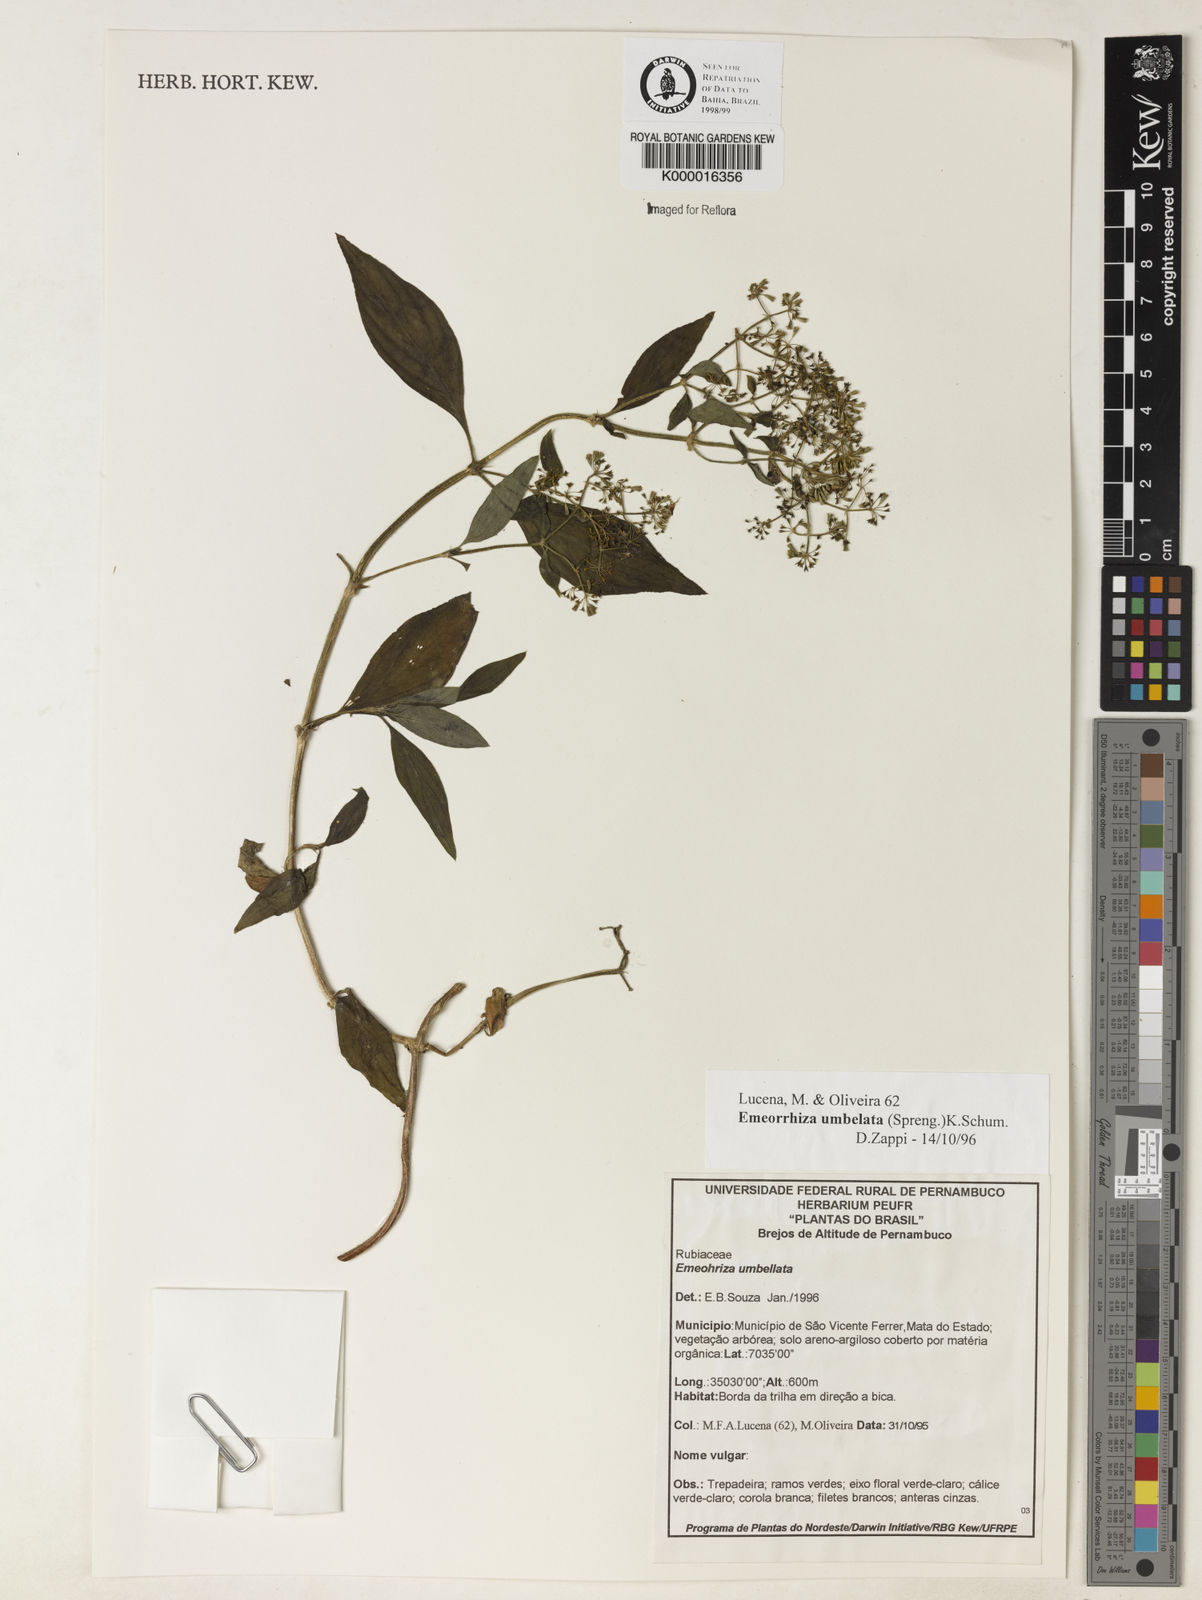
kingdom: Plantae
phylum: Tracheophyta
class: Magnoliopsida
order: Gentianales
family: Rubiaceae
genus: Emmeorhiza
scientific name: Emmeorhiza umbellata
